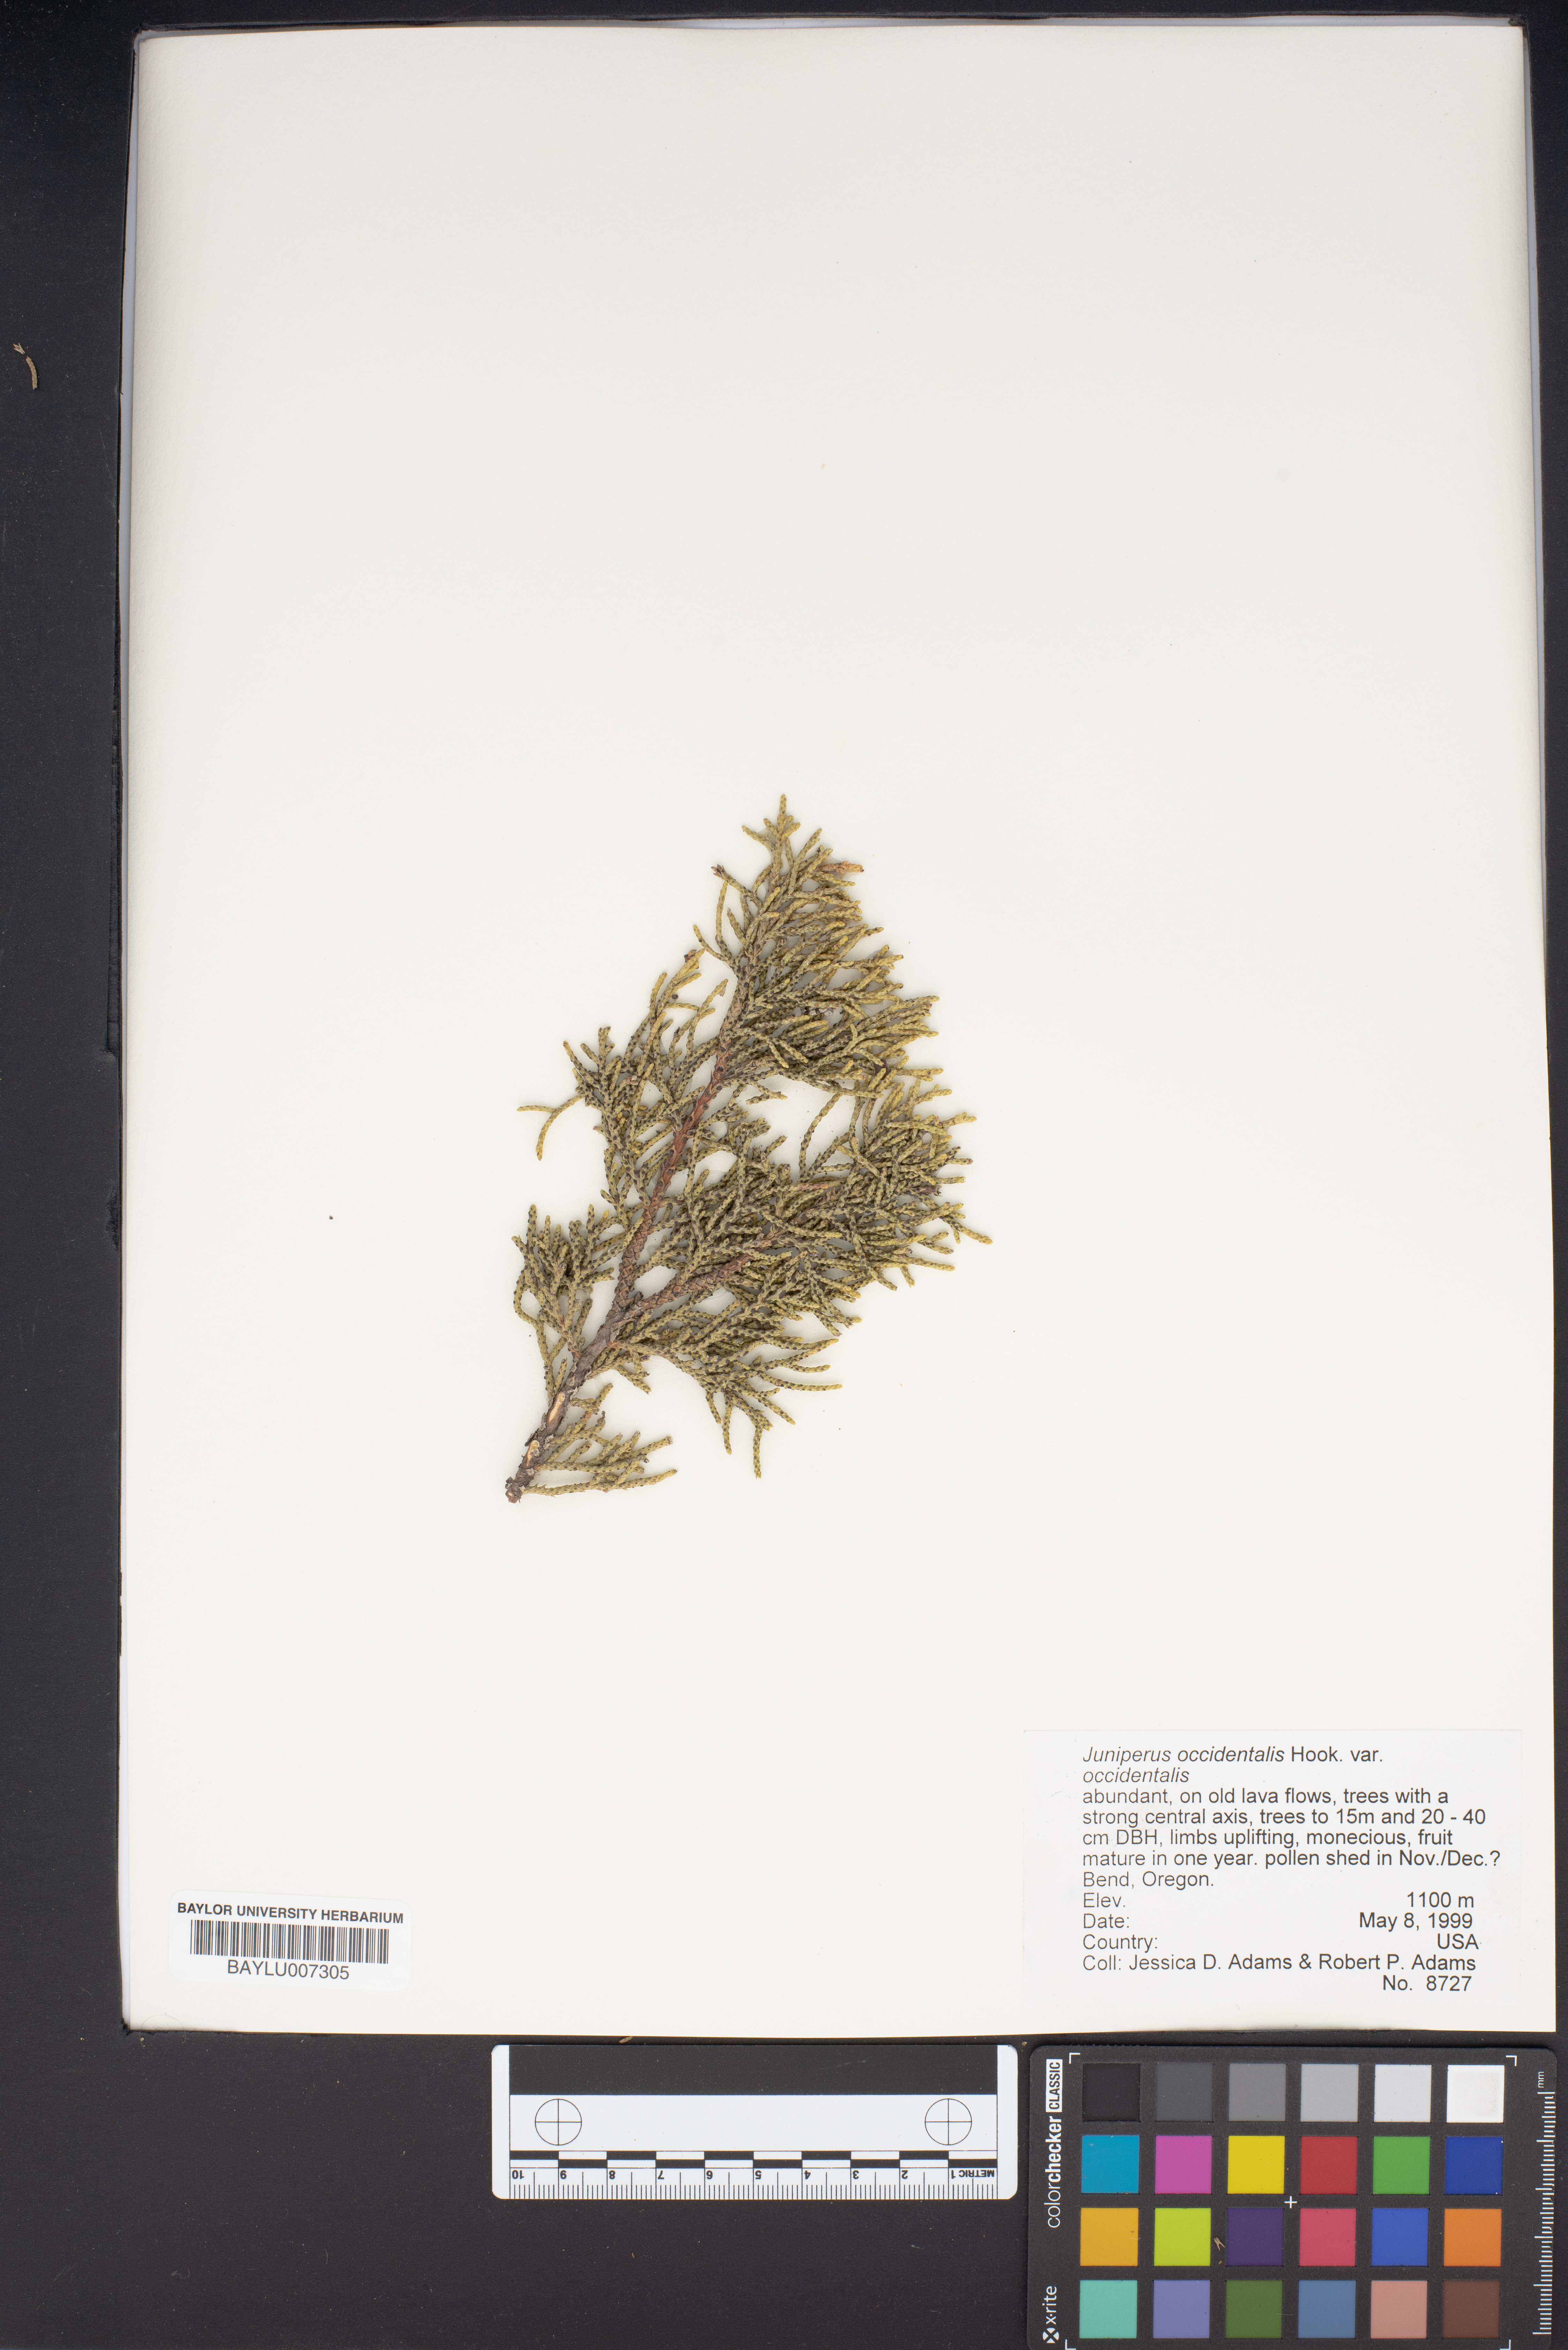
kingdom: Plantae
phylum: Tracheophyta
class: Pinopsida
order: Pinales
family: Cupressaceae
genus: Juniperus
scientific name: Juniperus occidentalis
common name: Western juniper
